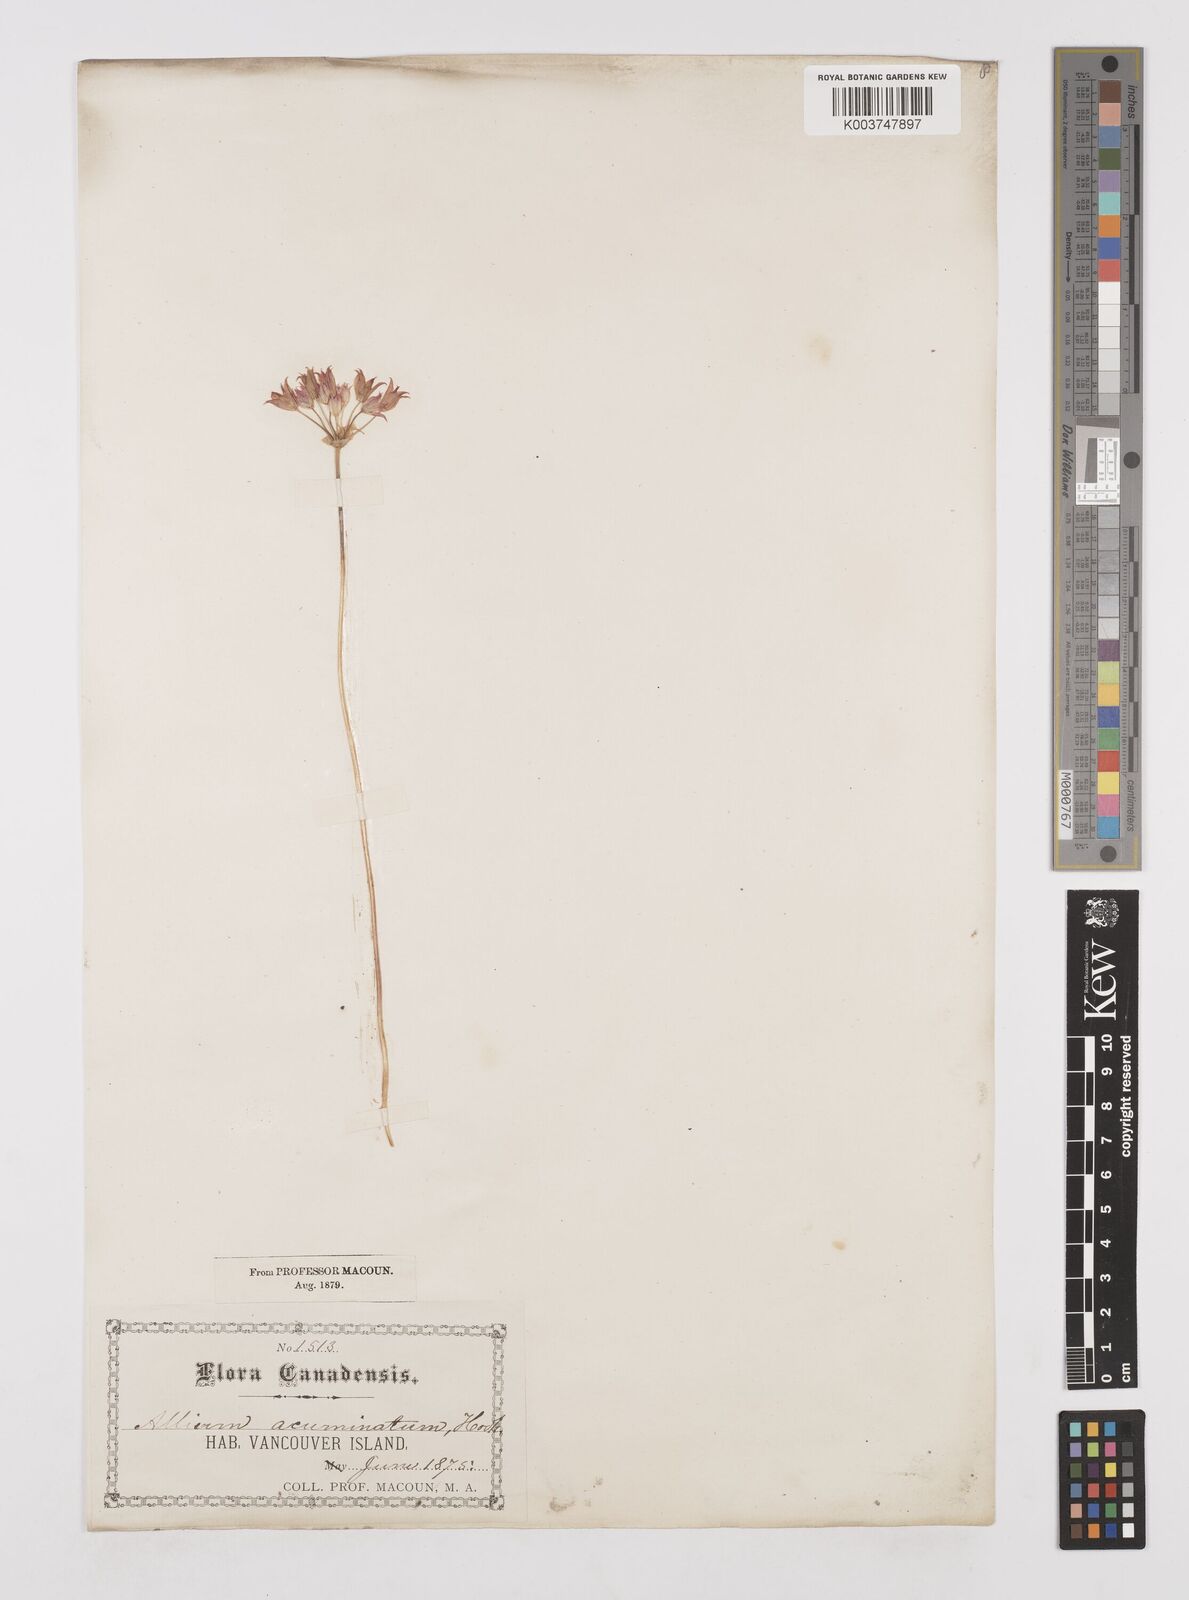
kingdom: Plantae
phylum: Tracheophyta
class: Liliopsida
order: Asparagales
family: Amaryllidaceae
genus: Allium
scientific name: Allium acuminatum
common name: Hooker's onion
